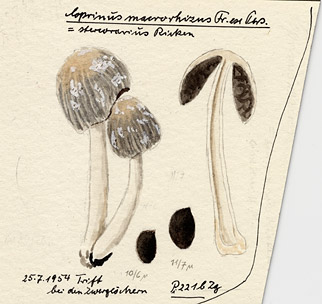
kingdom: Fungi
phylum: Basidiomycota
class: Agaricomycetes
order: Agaricales
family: Psathyrellaceae
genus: Coprinopsis
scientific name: Coprinopsis cinerea
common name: Grey inkcap
